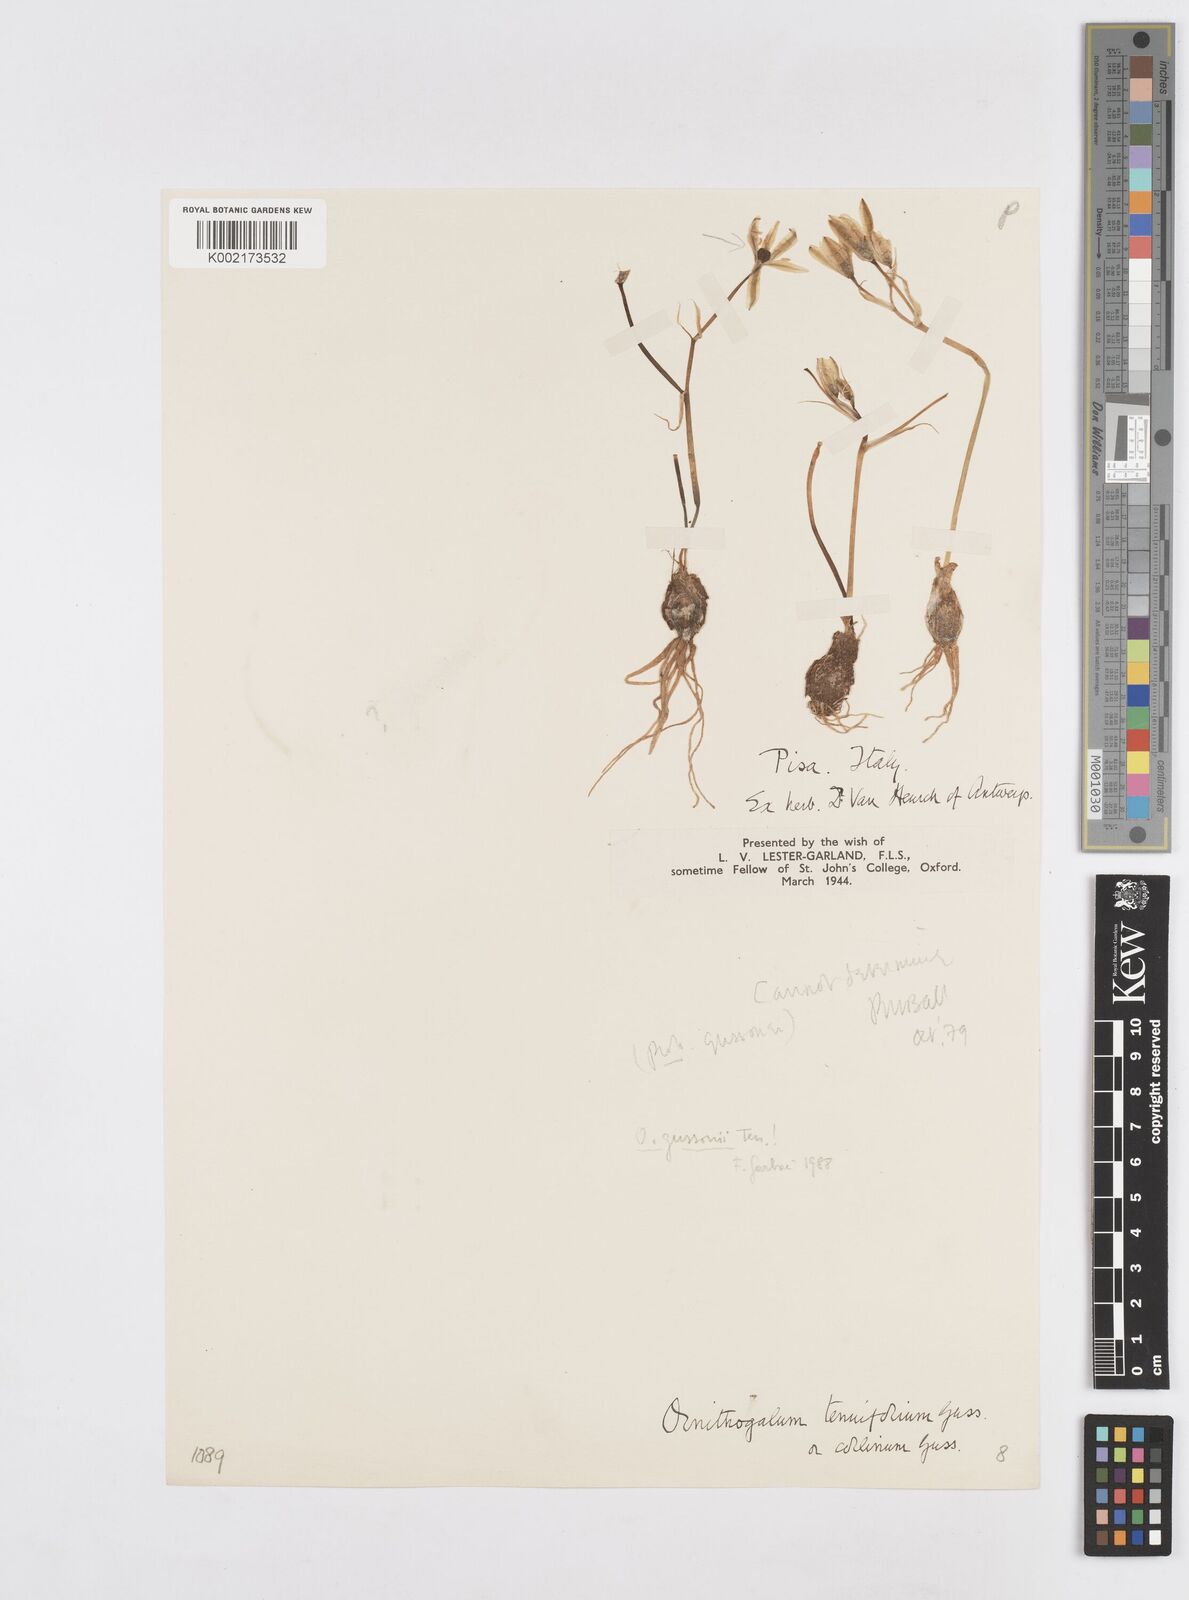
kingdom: Plantae
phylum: Tracheophyta
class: Liliopsida
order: Asparagales
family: Asparagaceae
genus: Ornithogalum
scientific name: Ornithogalum gussonei
